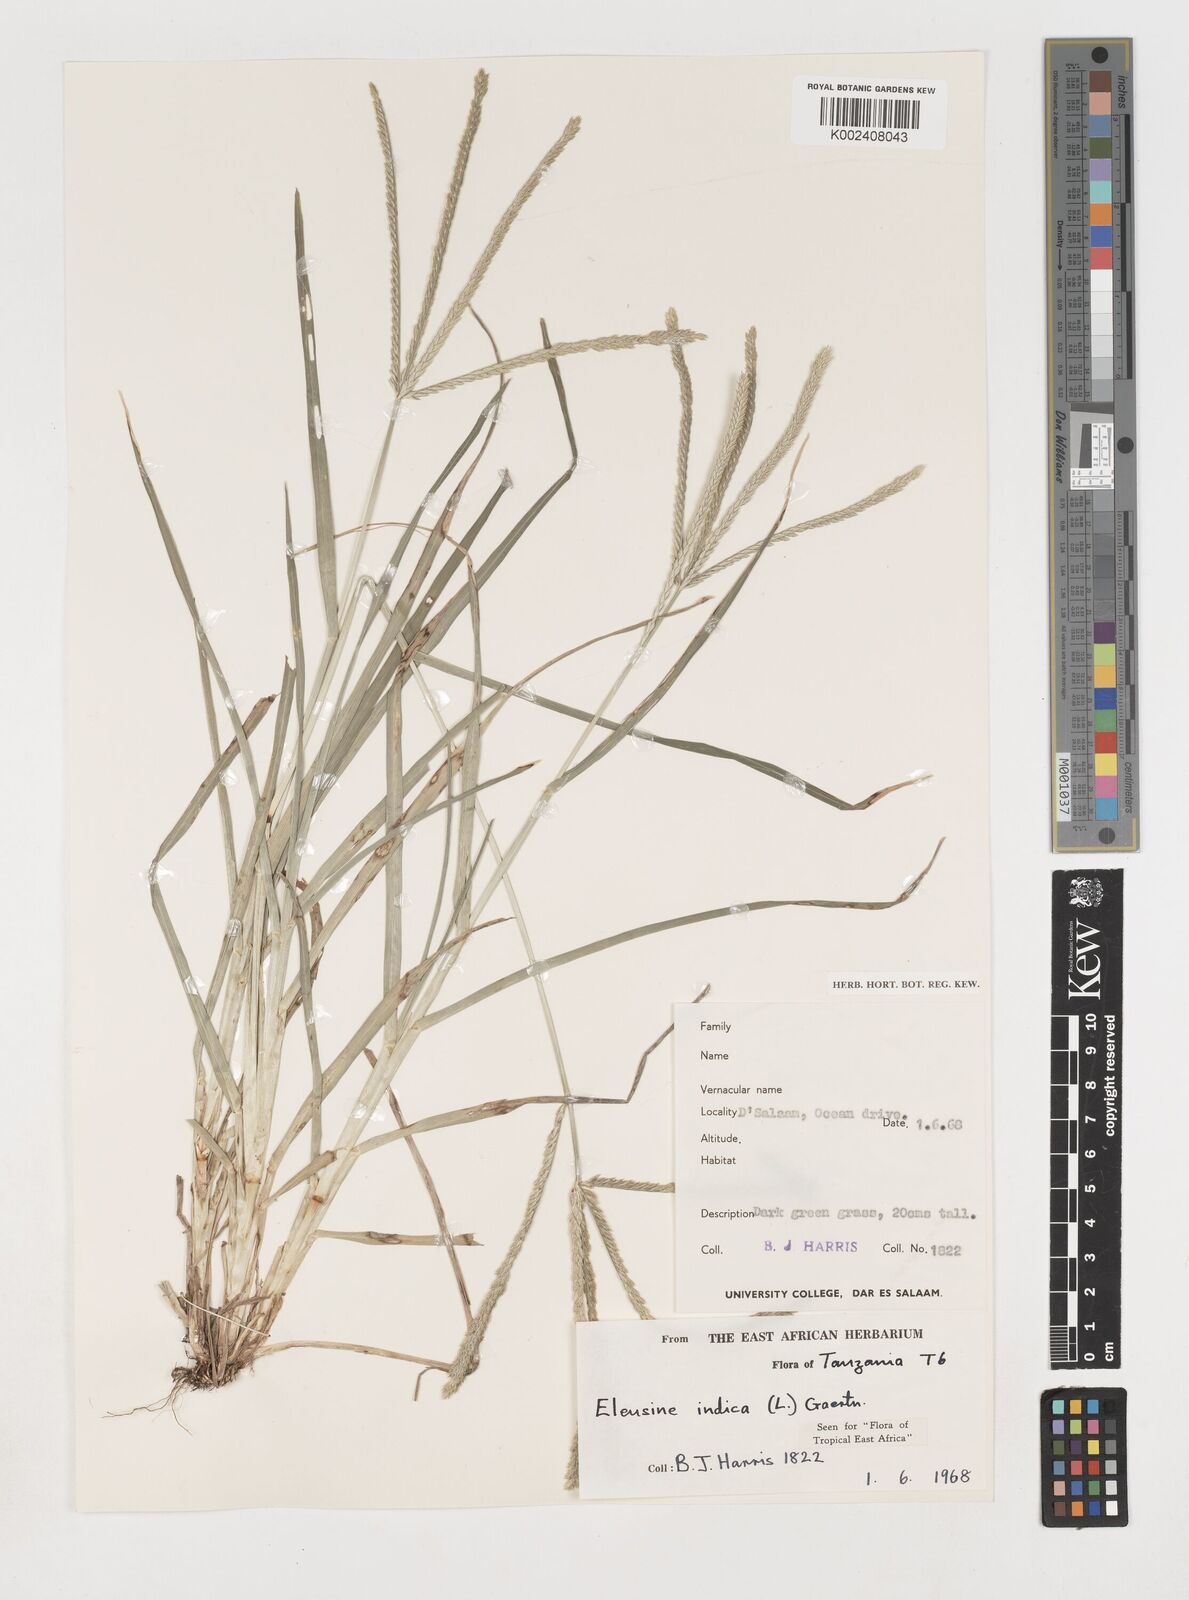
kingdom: Plantae
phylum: Tracheophyta
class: Liliopsida
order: Poales
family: Poaceae
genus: Eleusine
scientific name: Eleusine indica
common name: Yard-grass
